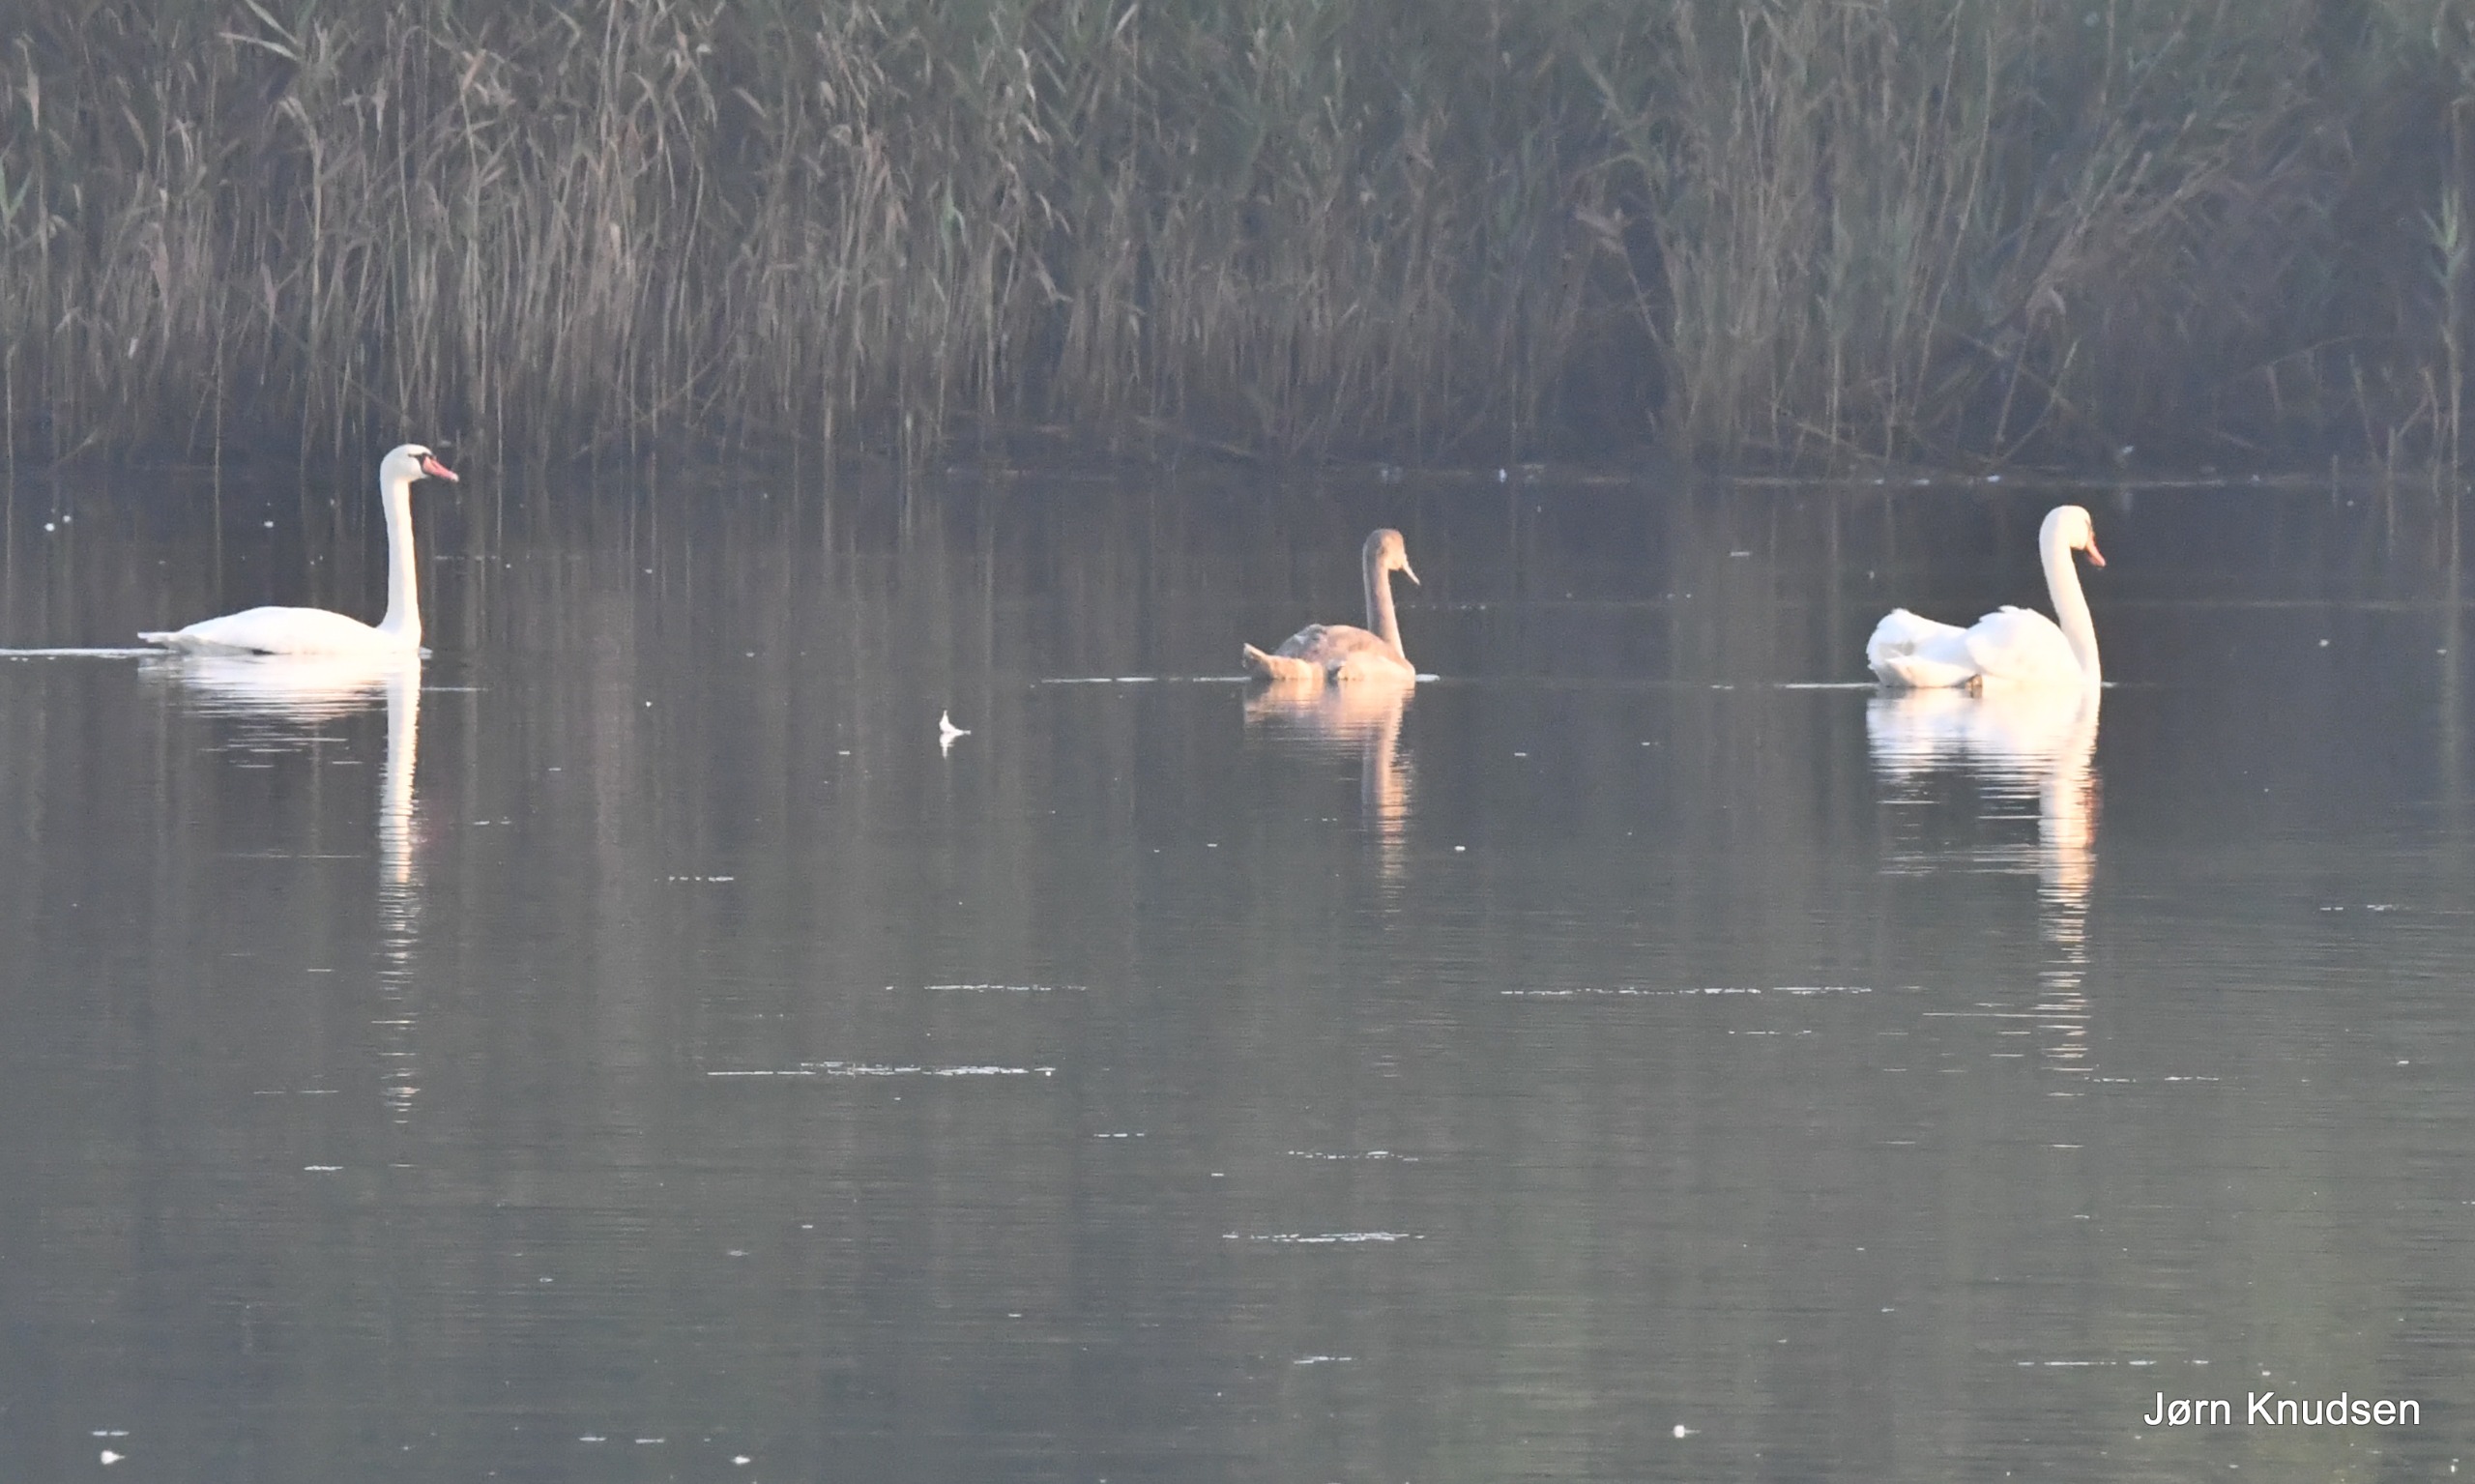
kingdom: Animalia
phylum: Chordata
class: Aves
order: Anseriformes
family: Anatidae
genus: Cygnus
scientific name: Cygnus olor
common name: Knopsvane
